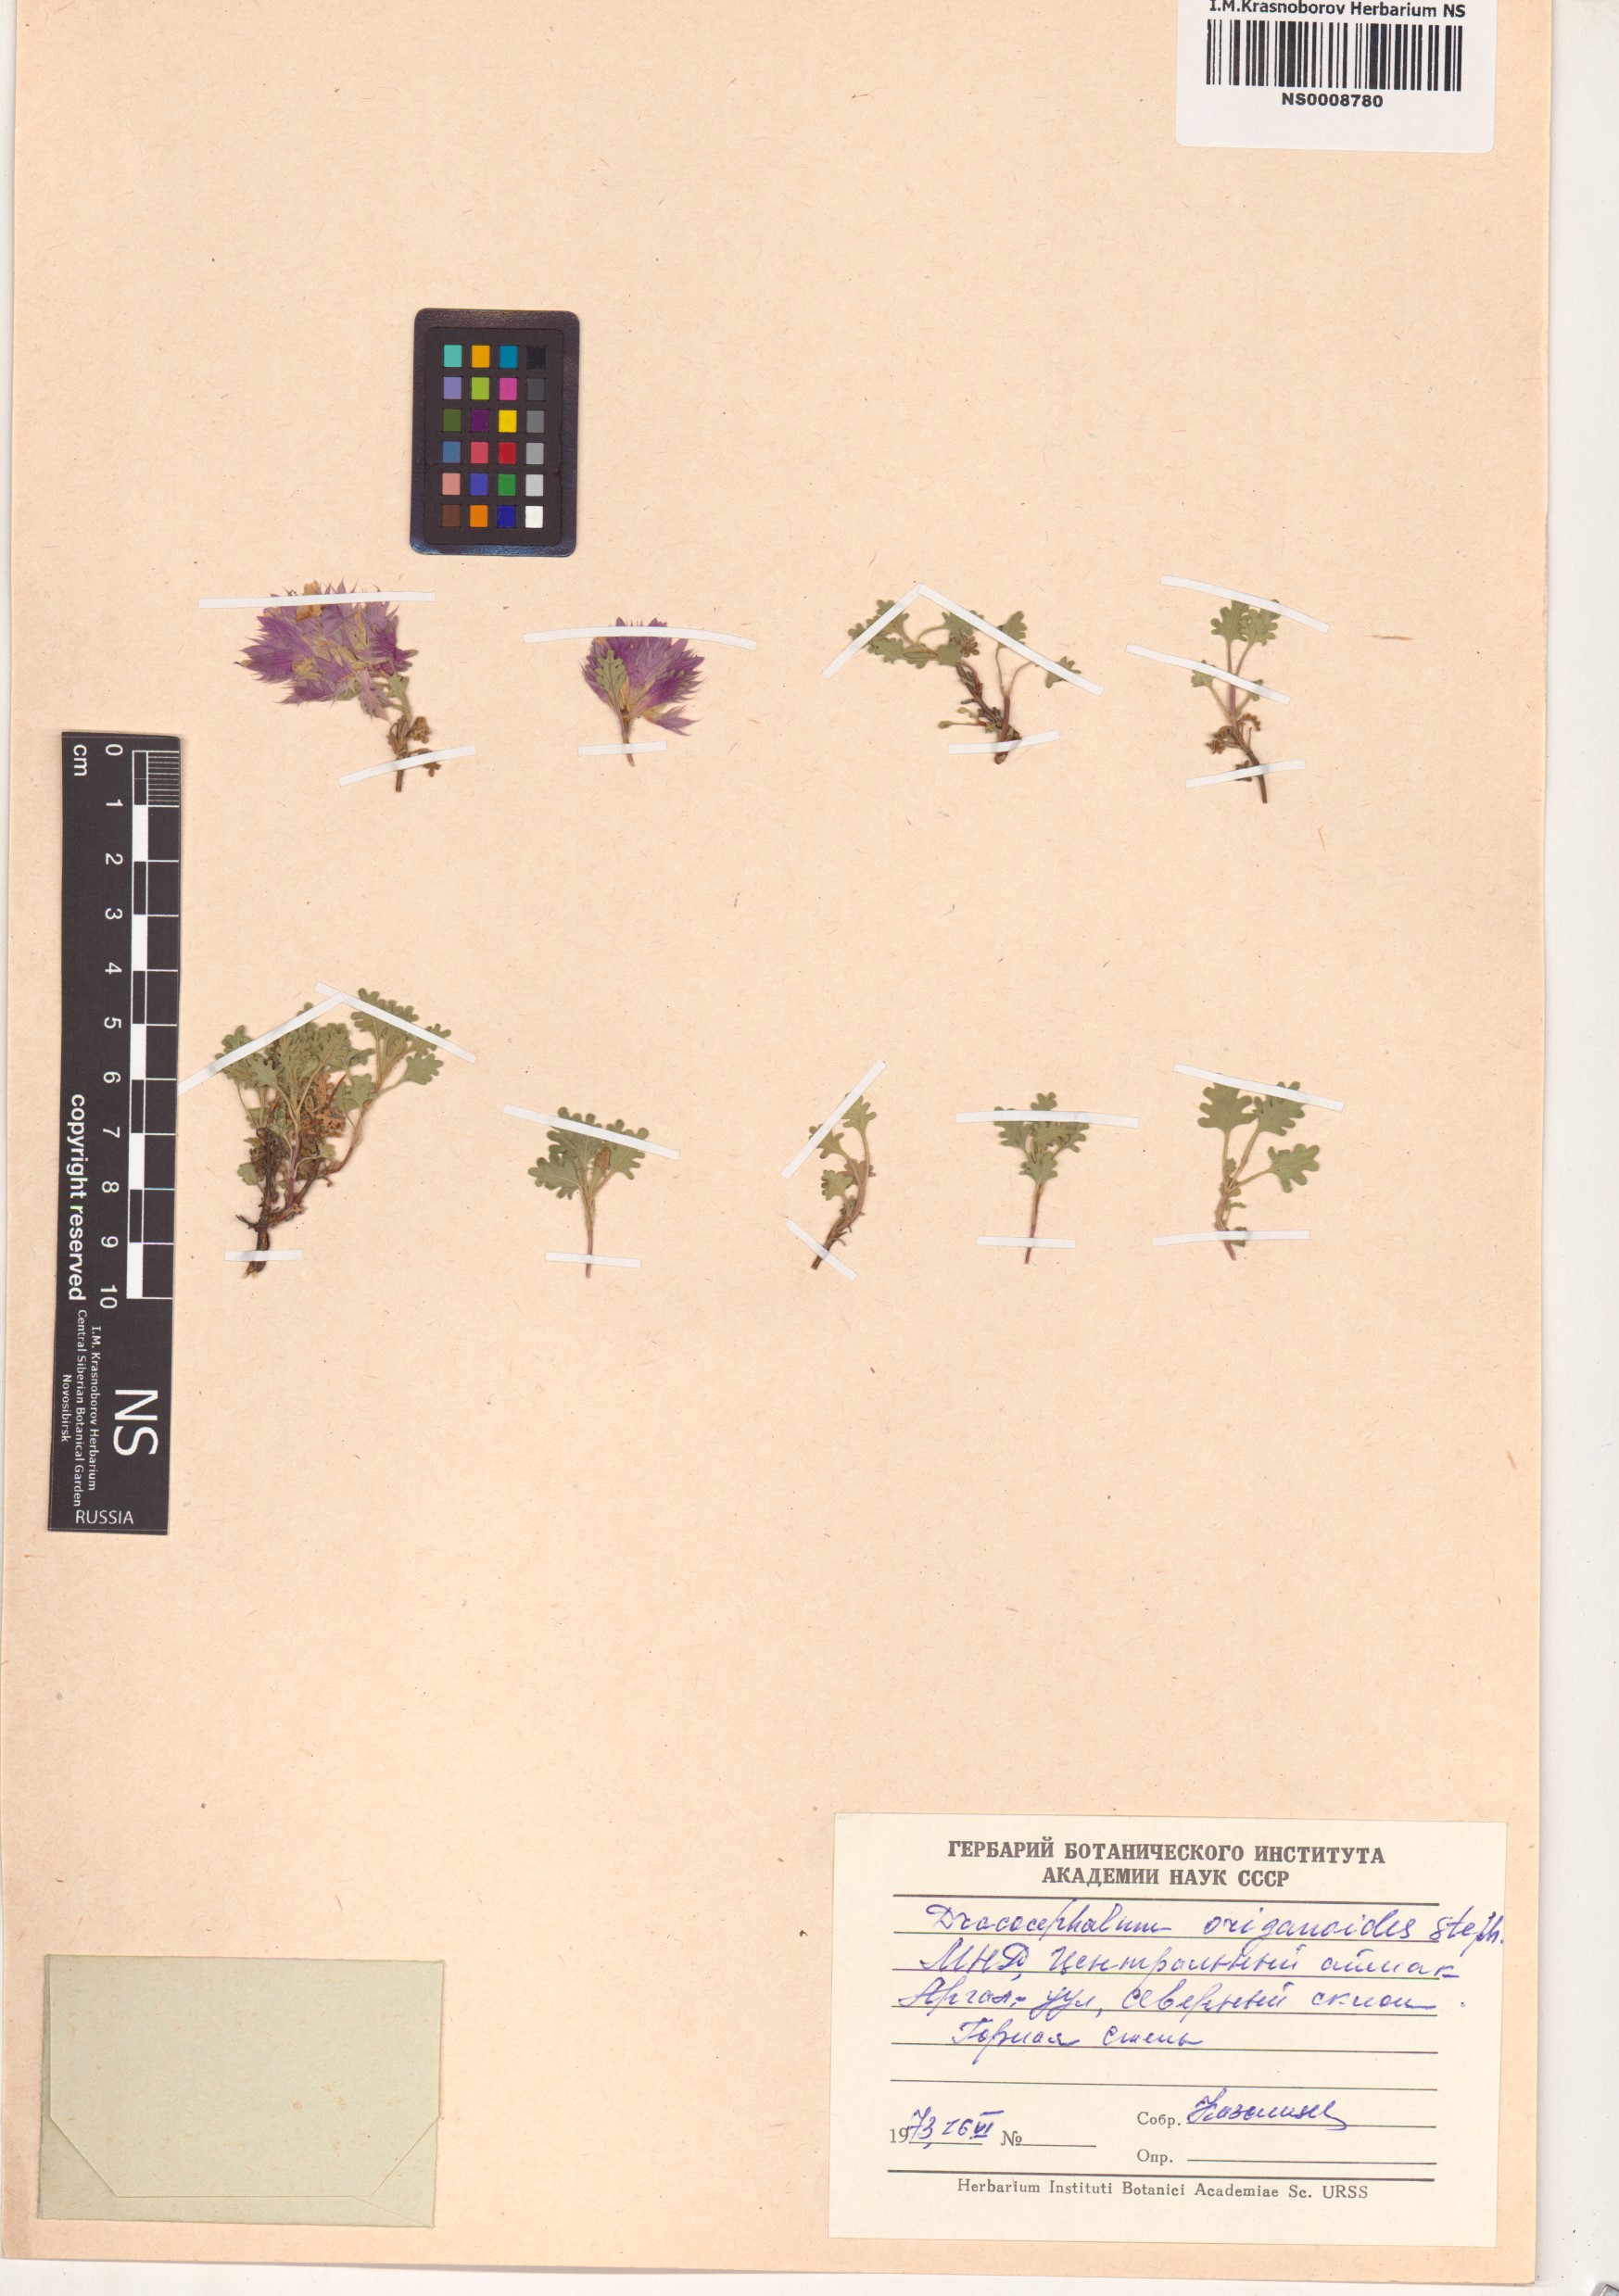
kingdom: Plantae
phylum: Tracheophyta
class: Magnoliopsida
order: Lamiales
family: Lamiaceae
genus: Dracocephalum
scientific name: Dracocephalum origanoides
